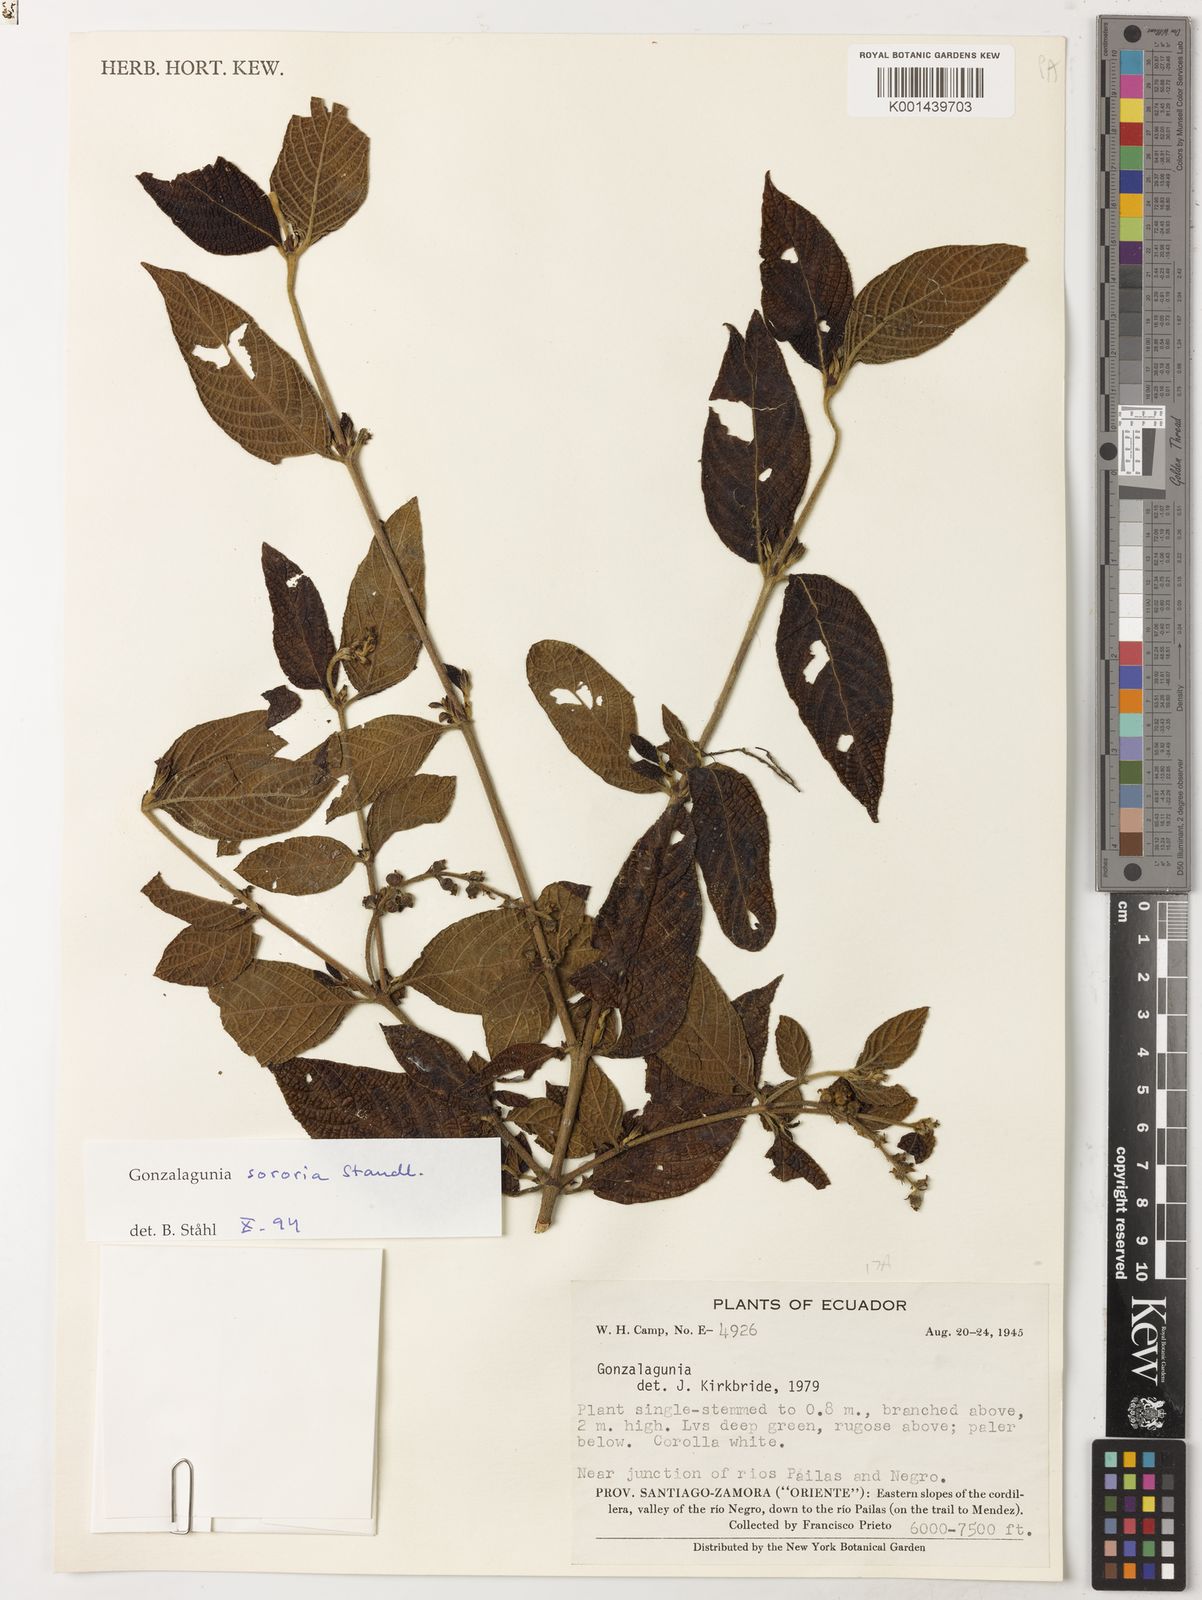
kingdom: Plantae
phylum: Tracheophyta
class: Magnoliopsida
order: Gentianales
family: Rubiaceae
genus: Gonzalagunia
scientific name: Gonzalagunia sororia
